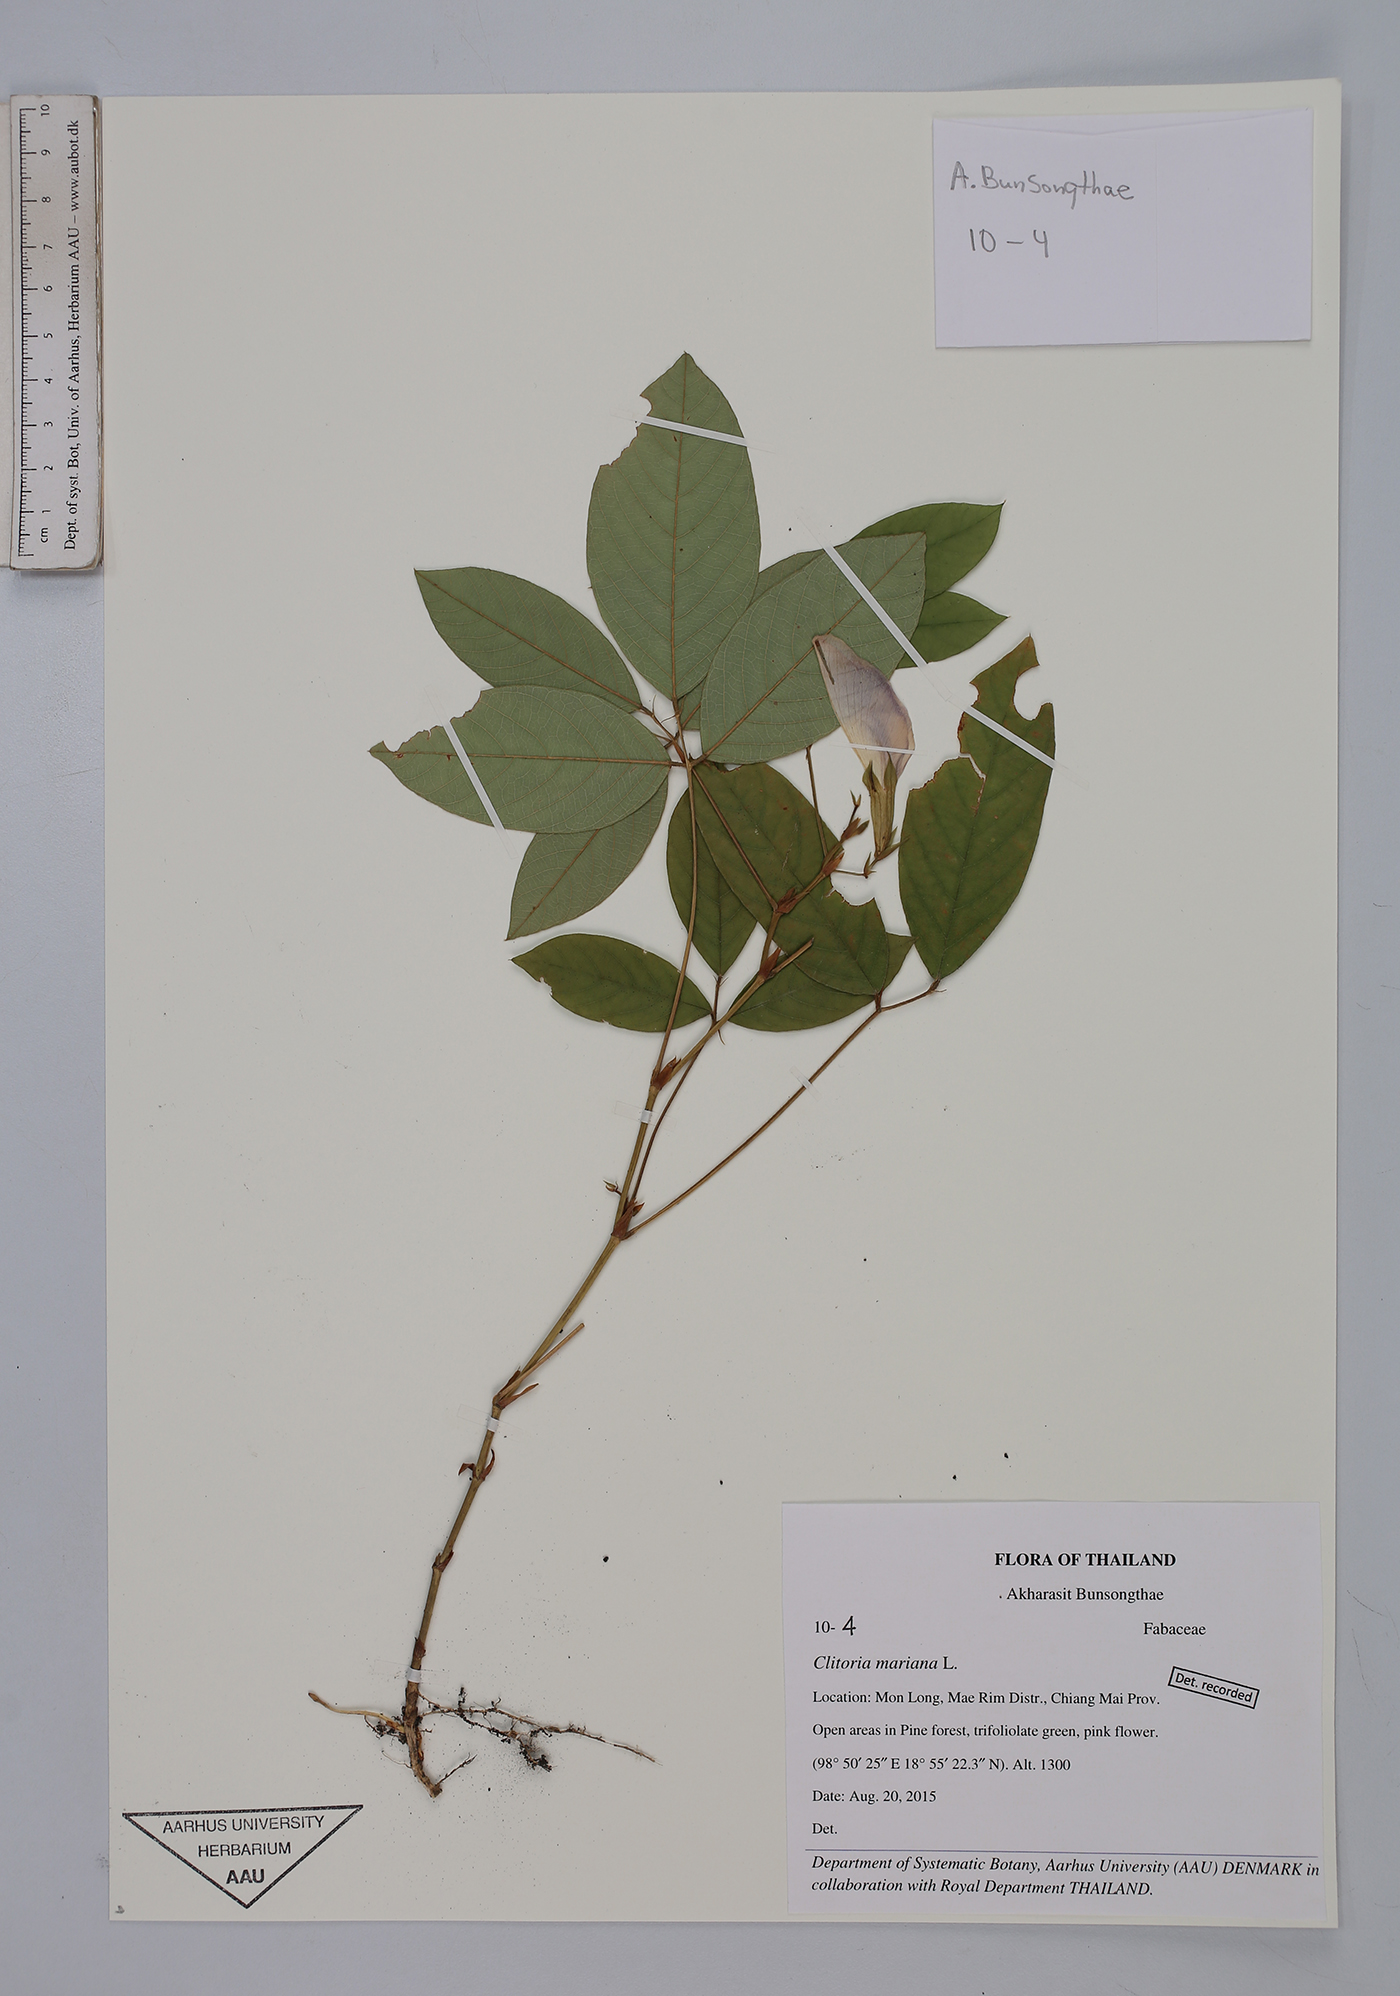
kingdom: Plantae
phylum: Tracheophyta
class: Magnoliopsida
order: Fabales
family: Fabaceae
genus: Clitoria
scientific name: Clitoria mariana
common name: Butterfly-pea
